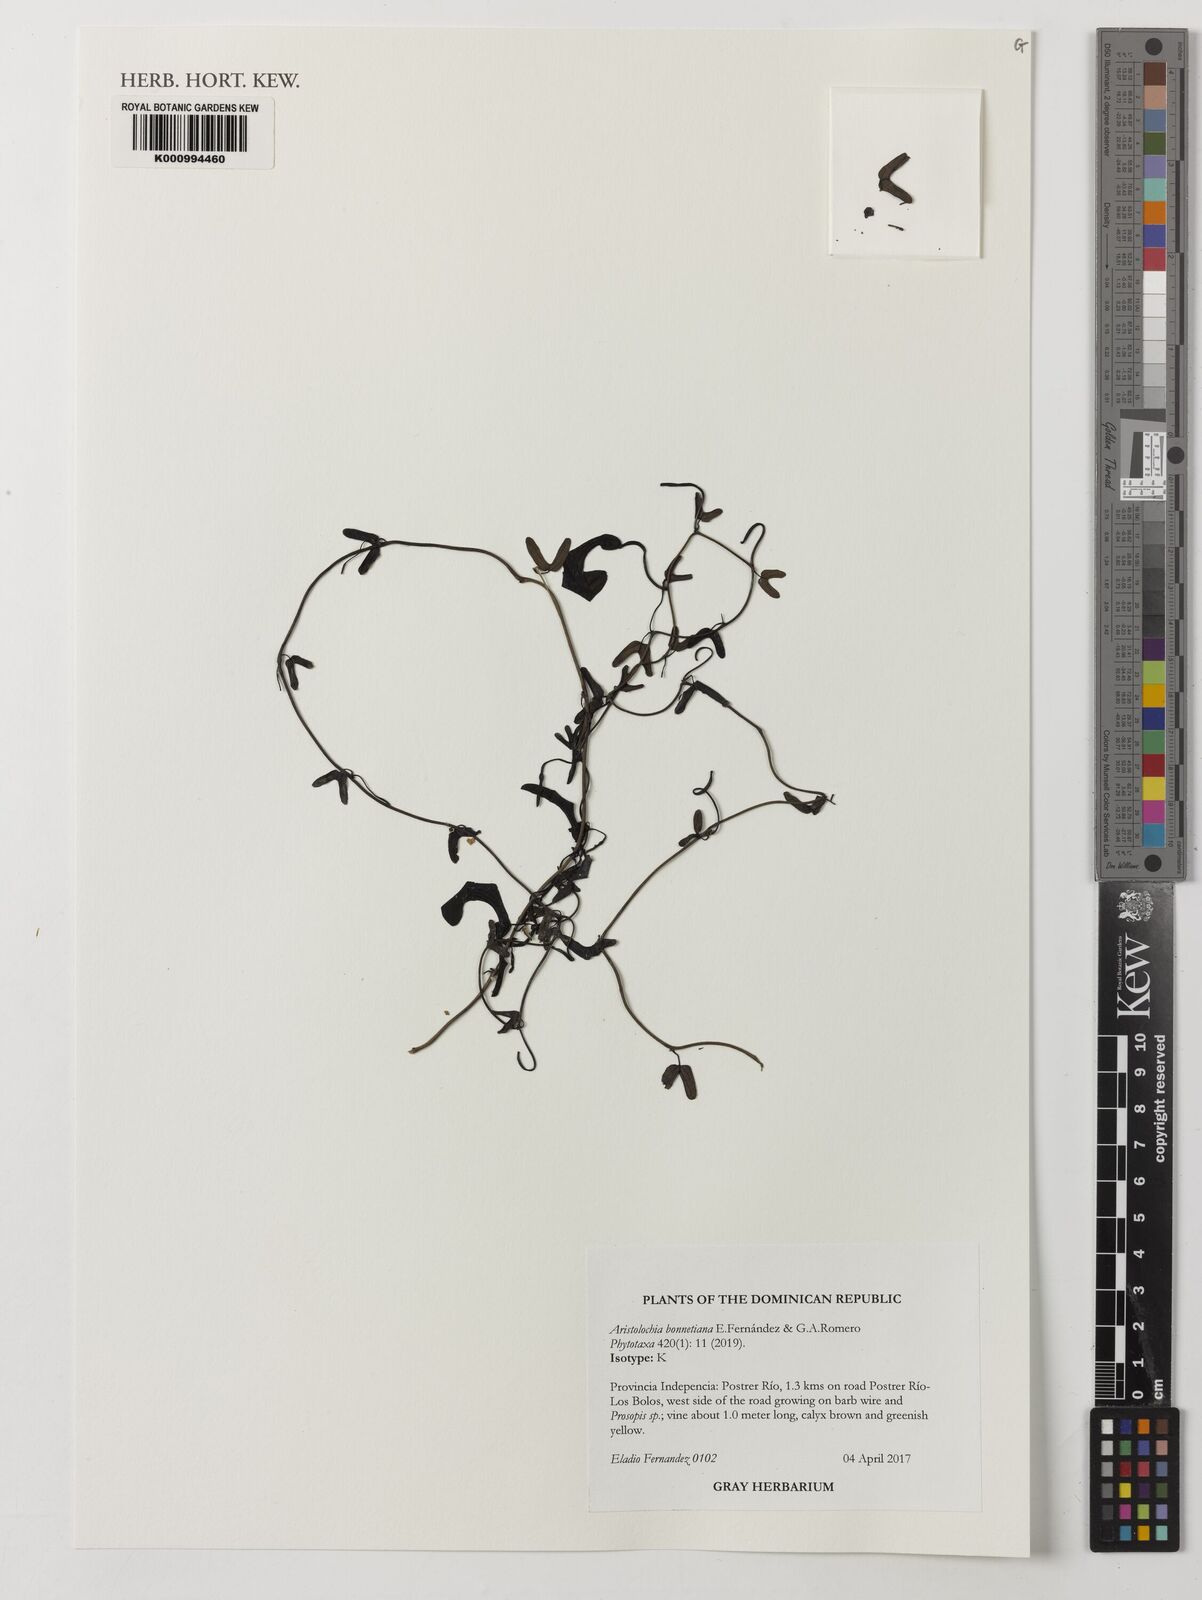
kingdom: Plantae
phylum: Tracheophyta
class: Magnoliopsida
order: Piperales
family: Aristolochiaceae
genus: Aristolochia
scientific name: Aristolochia bonettiana
